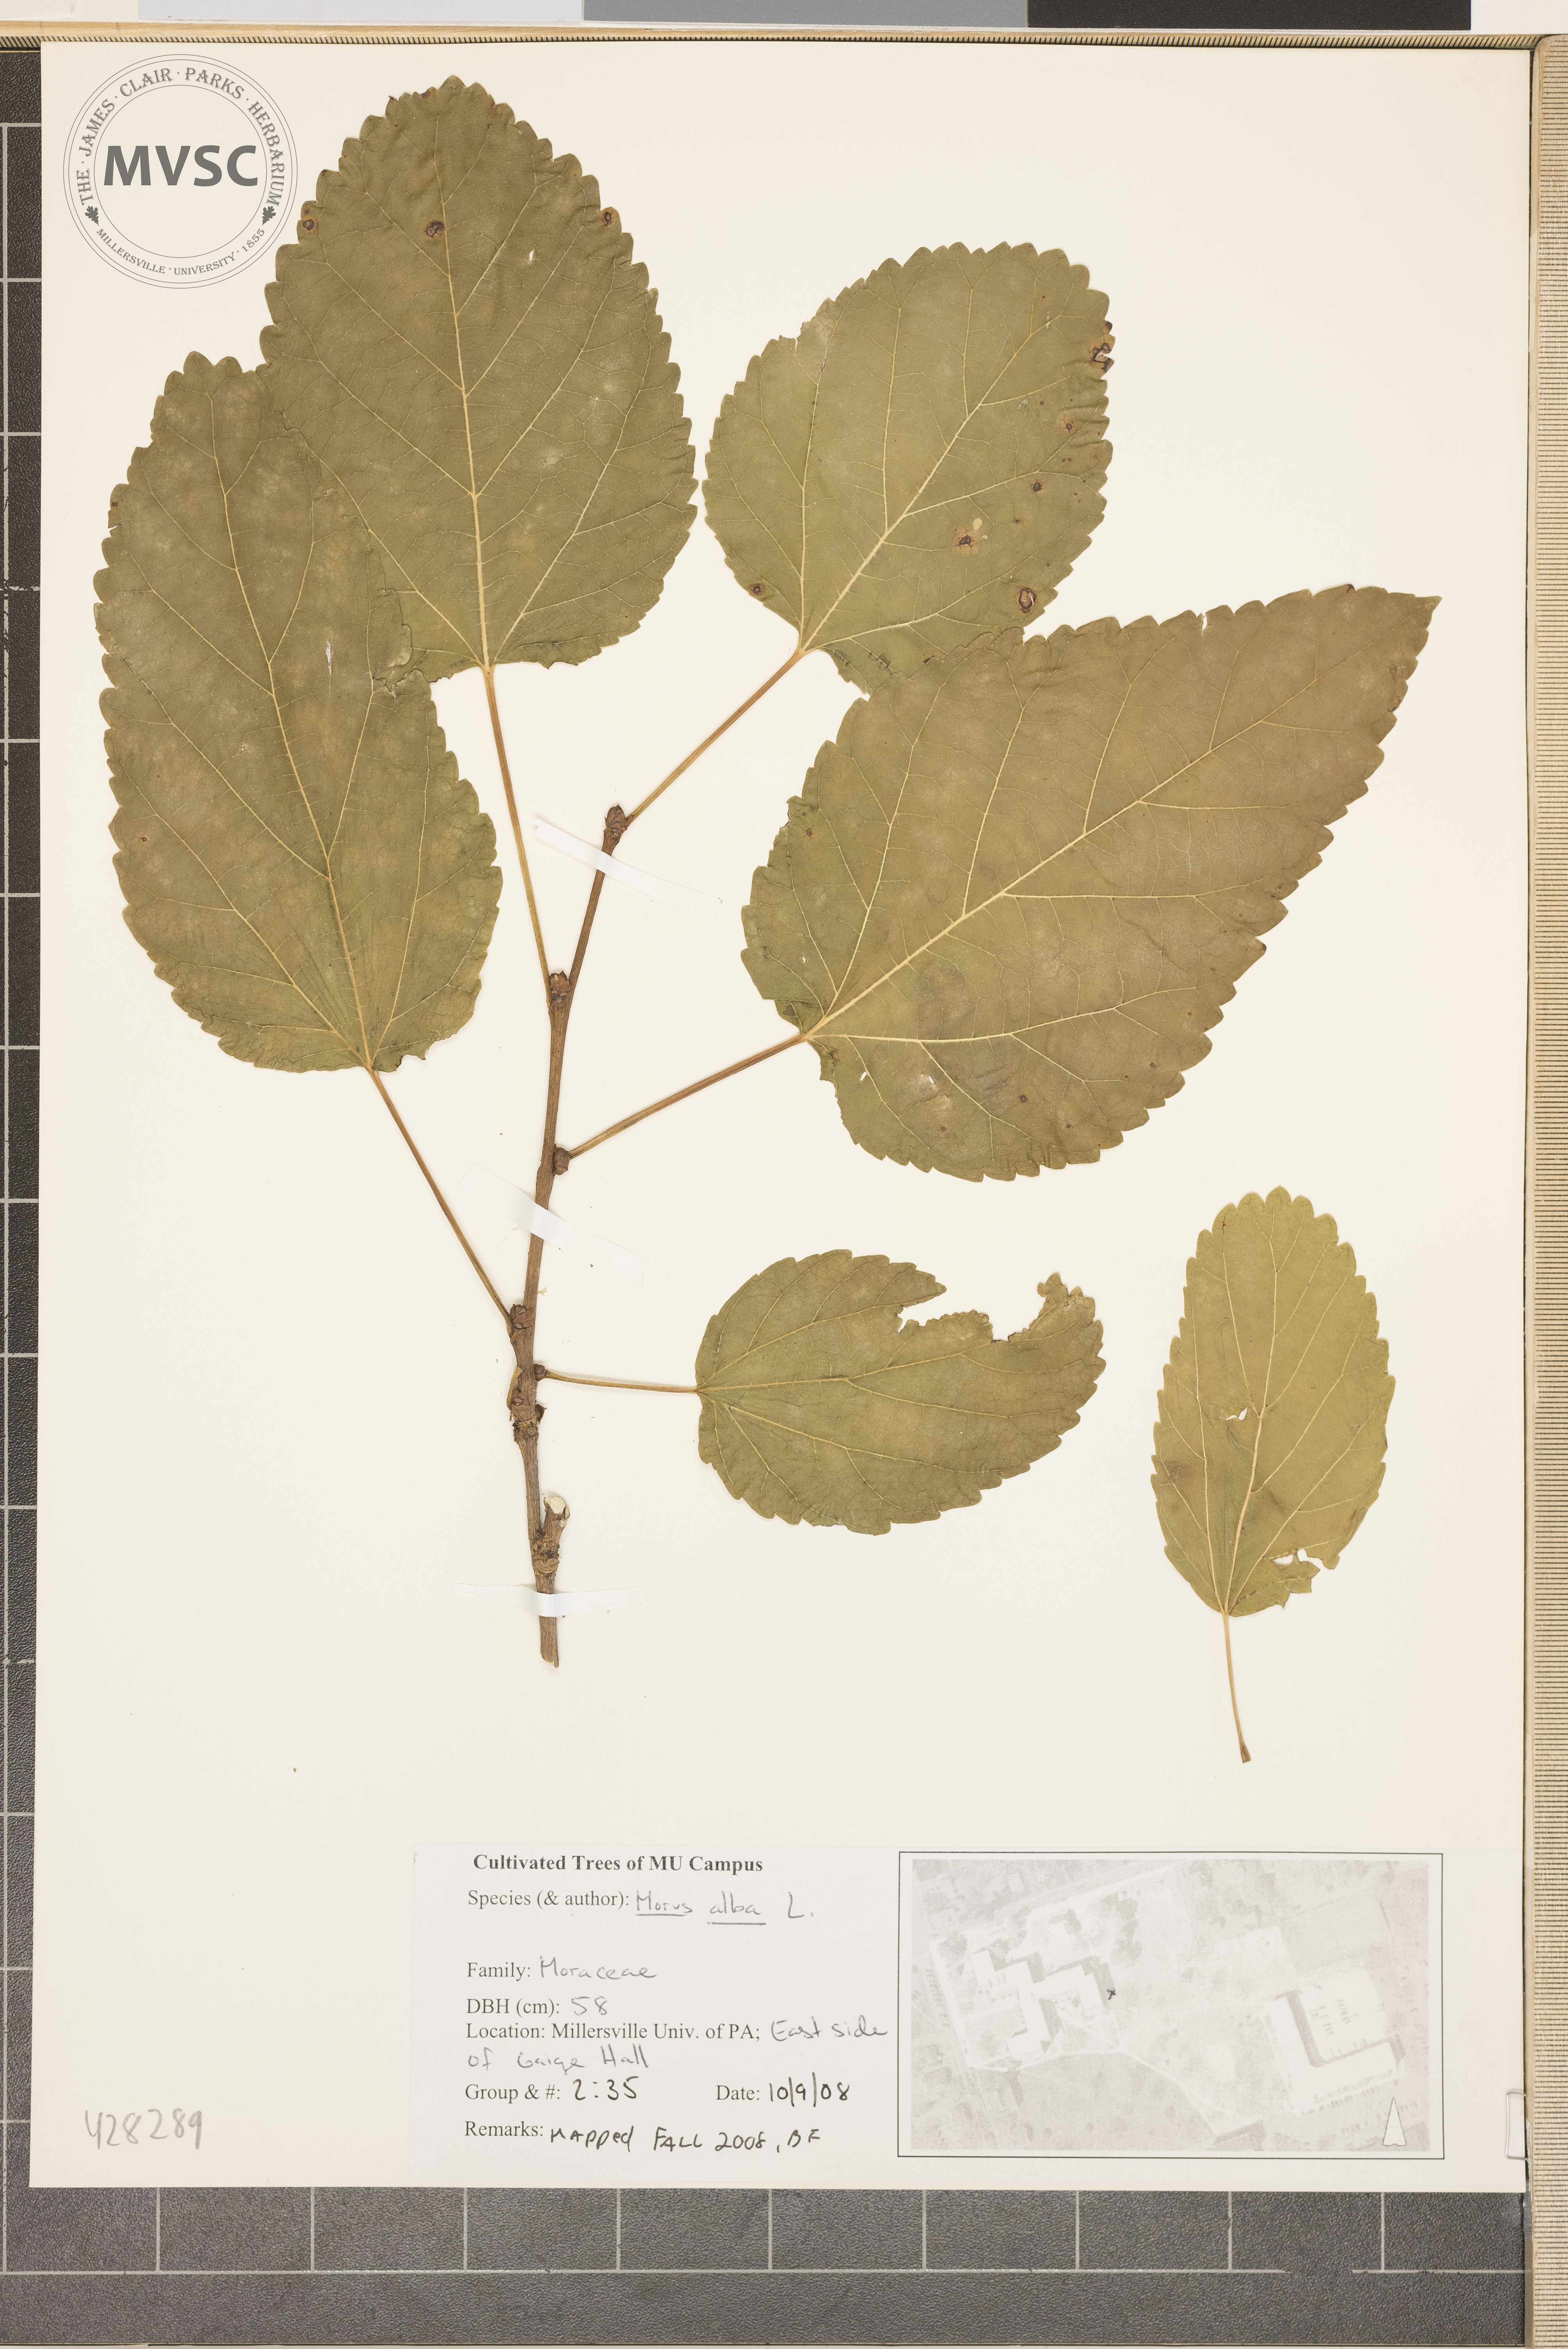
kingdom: Plantae
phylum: Tracheophyta
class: Magnoliopsida
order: Rosales
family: Moraceae
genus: Morus
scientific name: Morus alba
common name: White Mulberry
